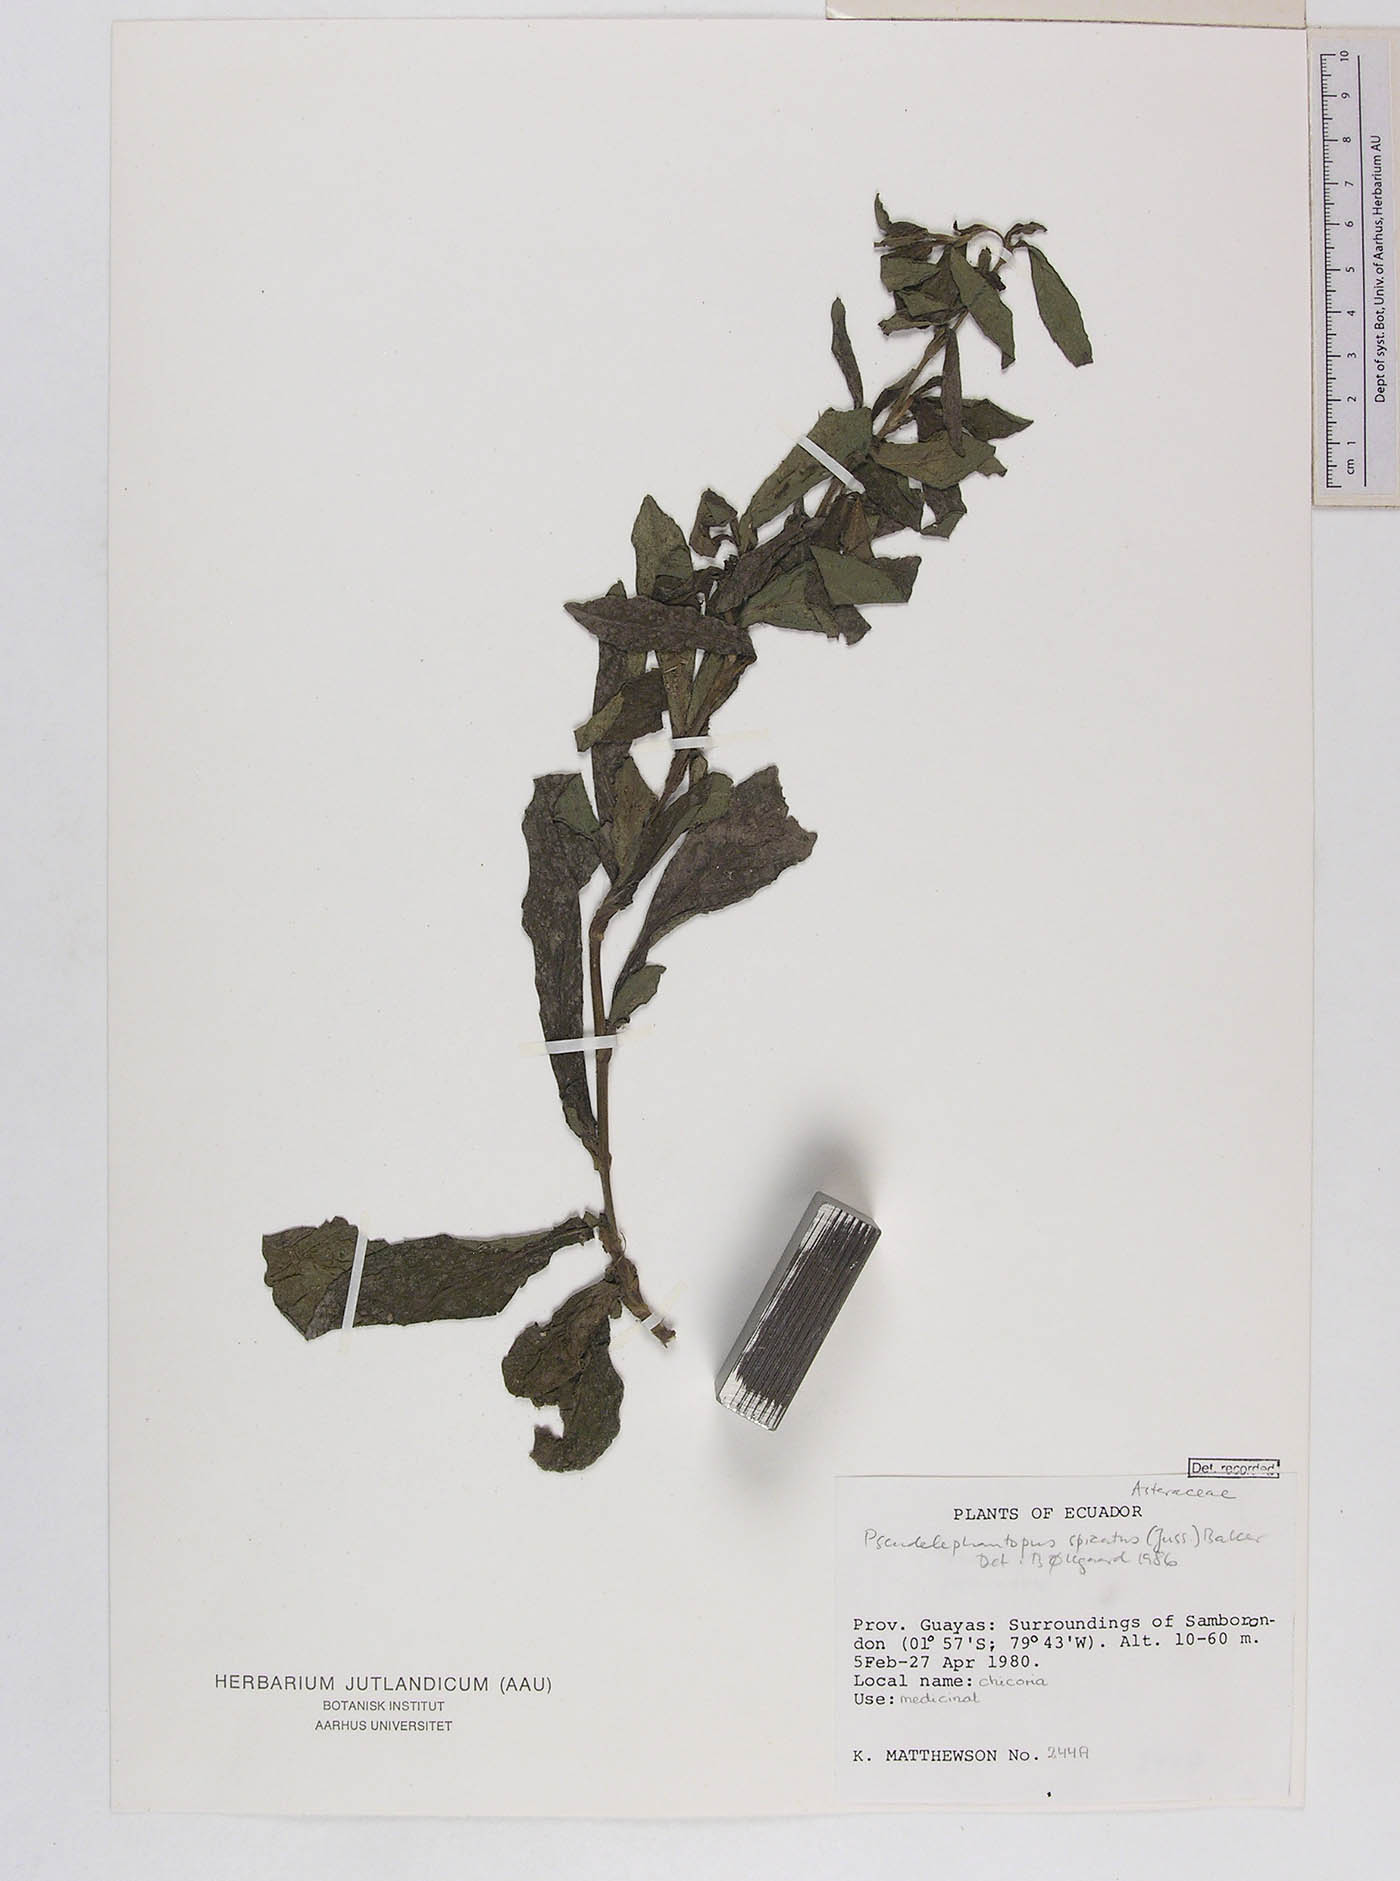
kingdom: Plantae
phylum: Tracheophyta
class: Magnoliopsida
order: Asterales
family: Asteraceae
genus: Pseudelephantopus
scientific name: Pseudelephantopus
